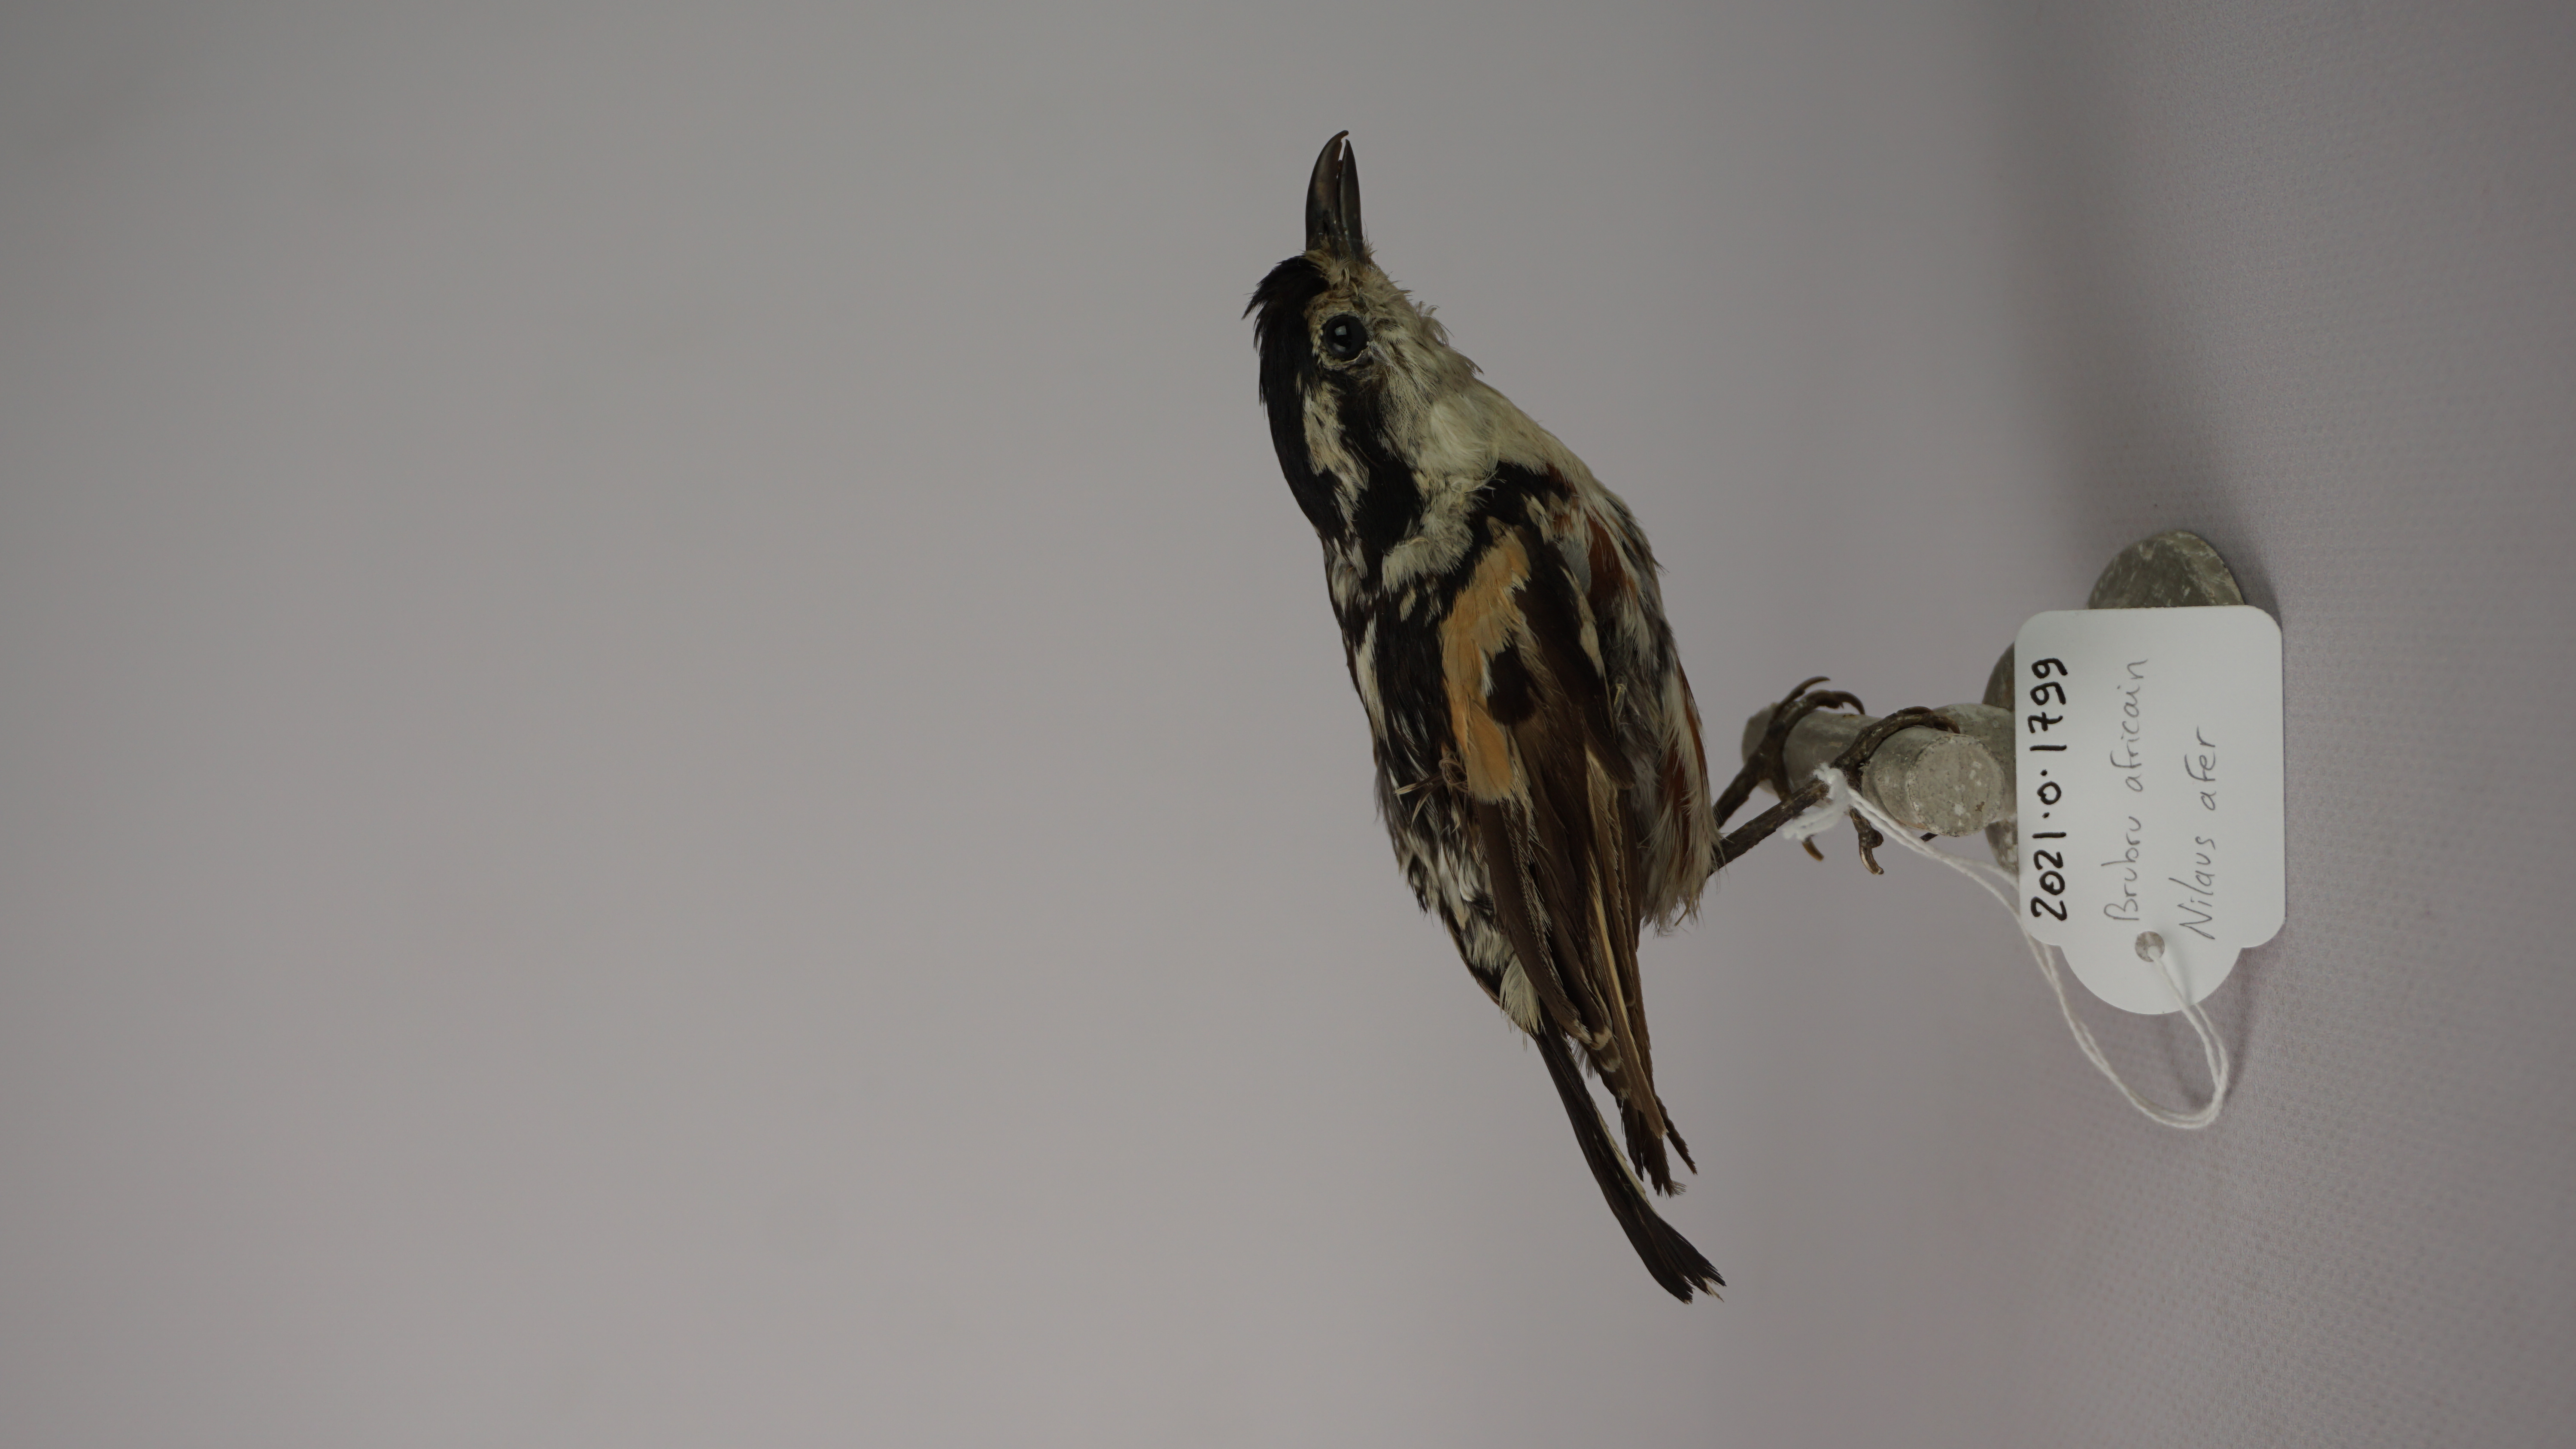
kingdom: Animalia
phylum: Chordata
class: Aves
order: Passeriformes
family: Malaconotidae
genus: Nilaus
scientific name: Nilaus afer
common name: Brubru
